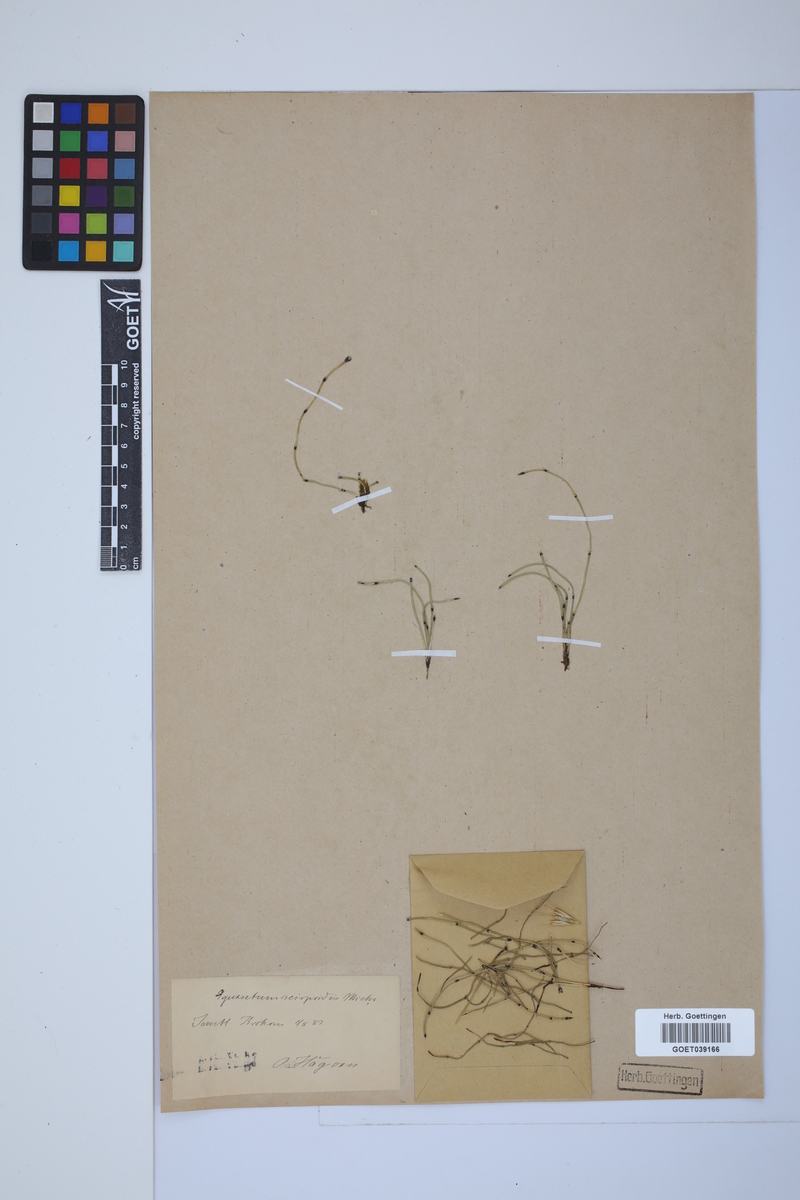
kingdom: Plantae
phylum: Tracheophyta
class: Polypodiopsida
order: Equisetales
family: Equisetaceae
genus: Equisetum
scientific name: Equisetum scirpoides
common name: Delicate horsetail
